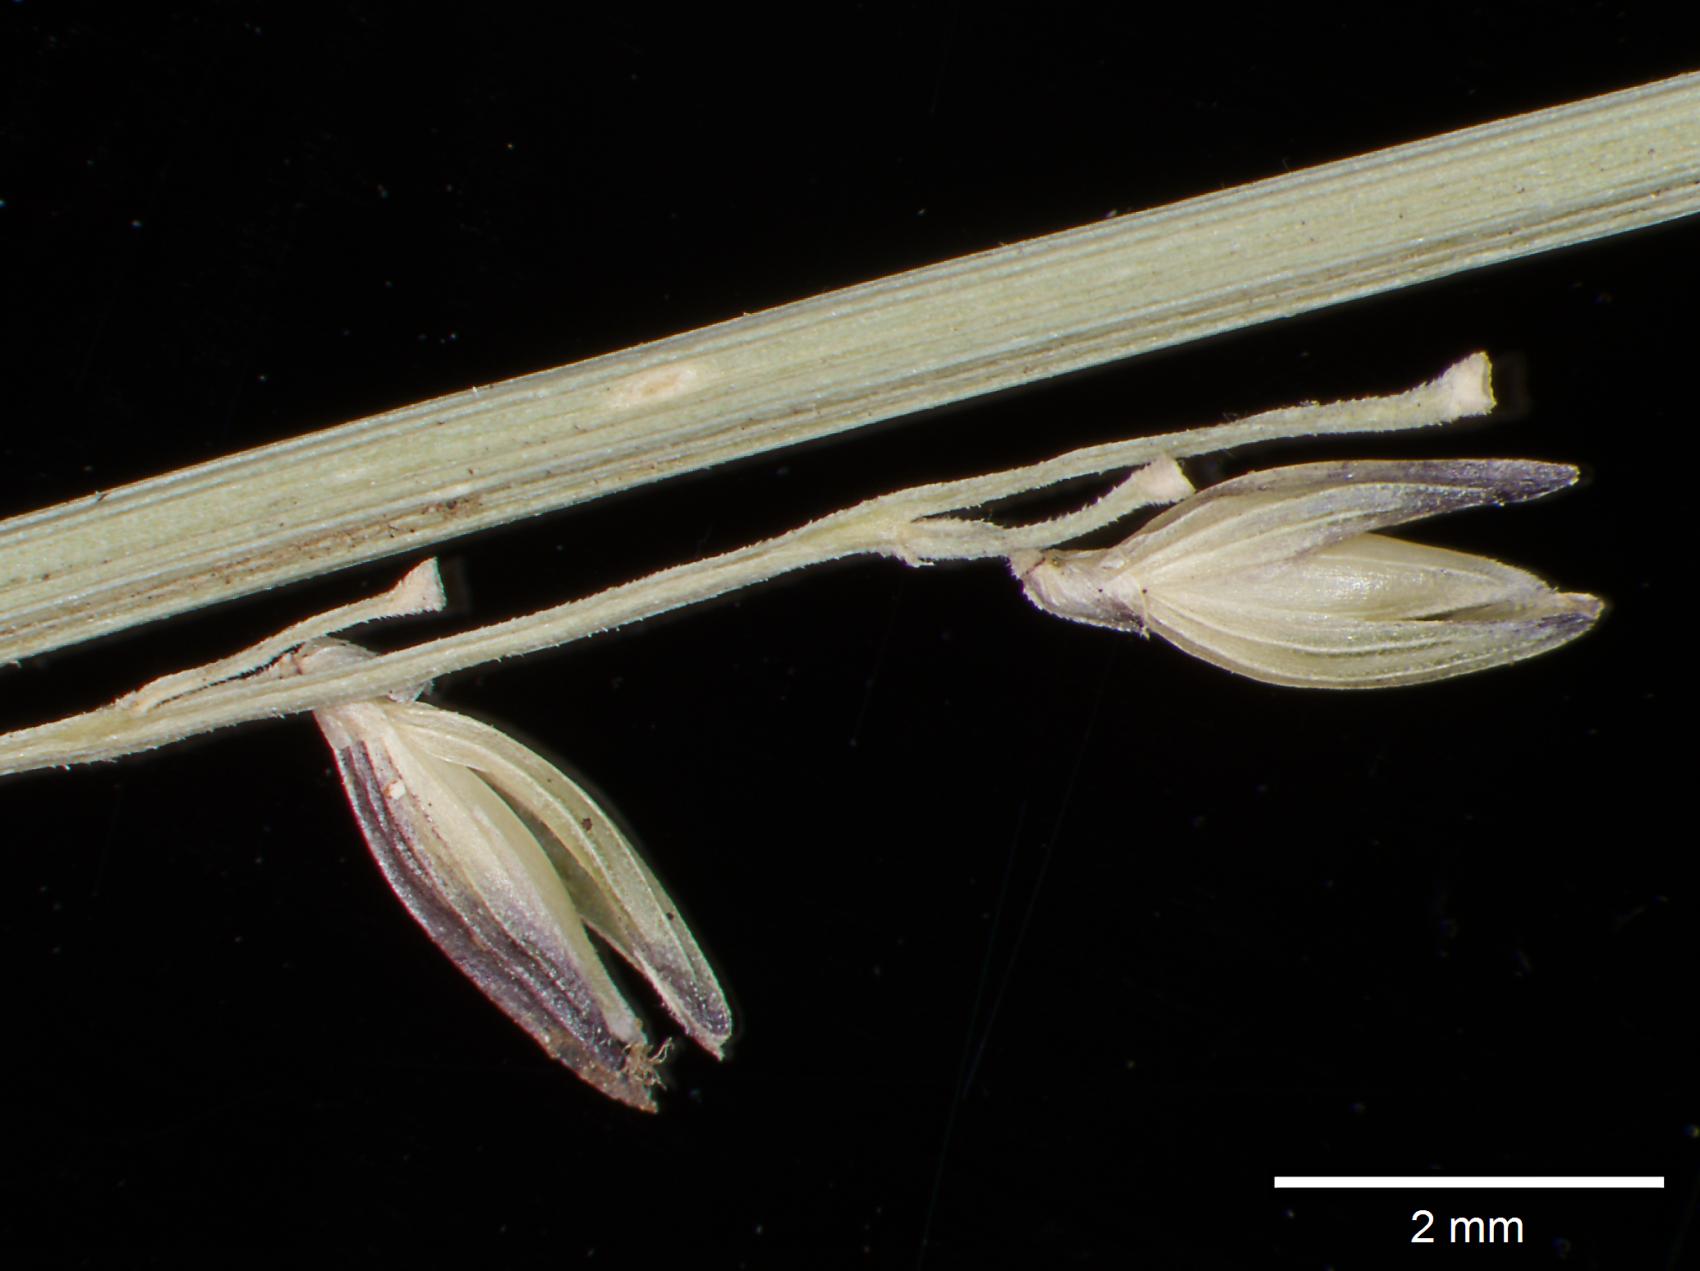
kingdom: Plantae
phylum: Tracheophyta
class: Liliopsida
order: Poales
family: Poaceae
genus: Coleataenia
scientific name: Coleataenia beyeri
